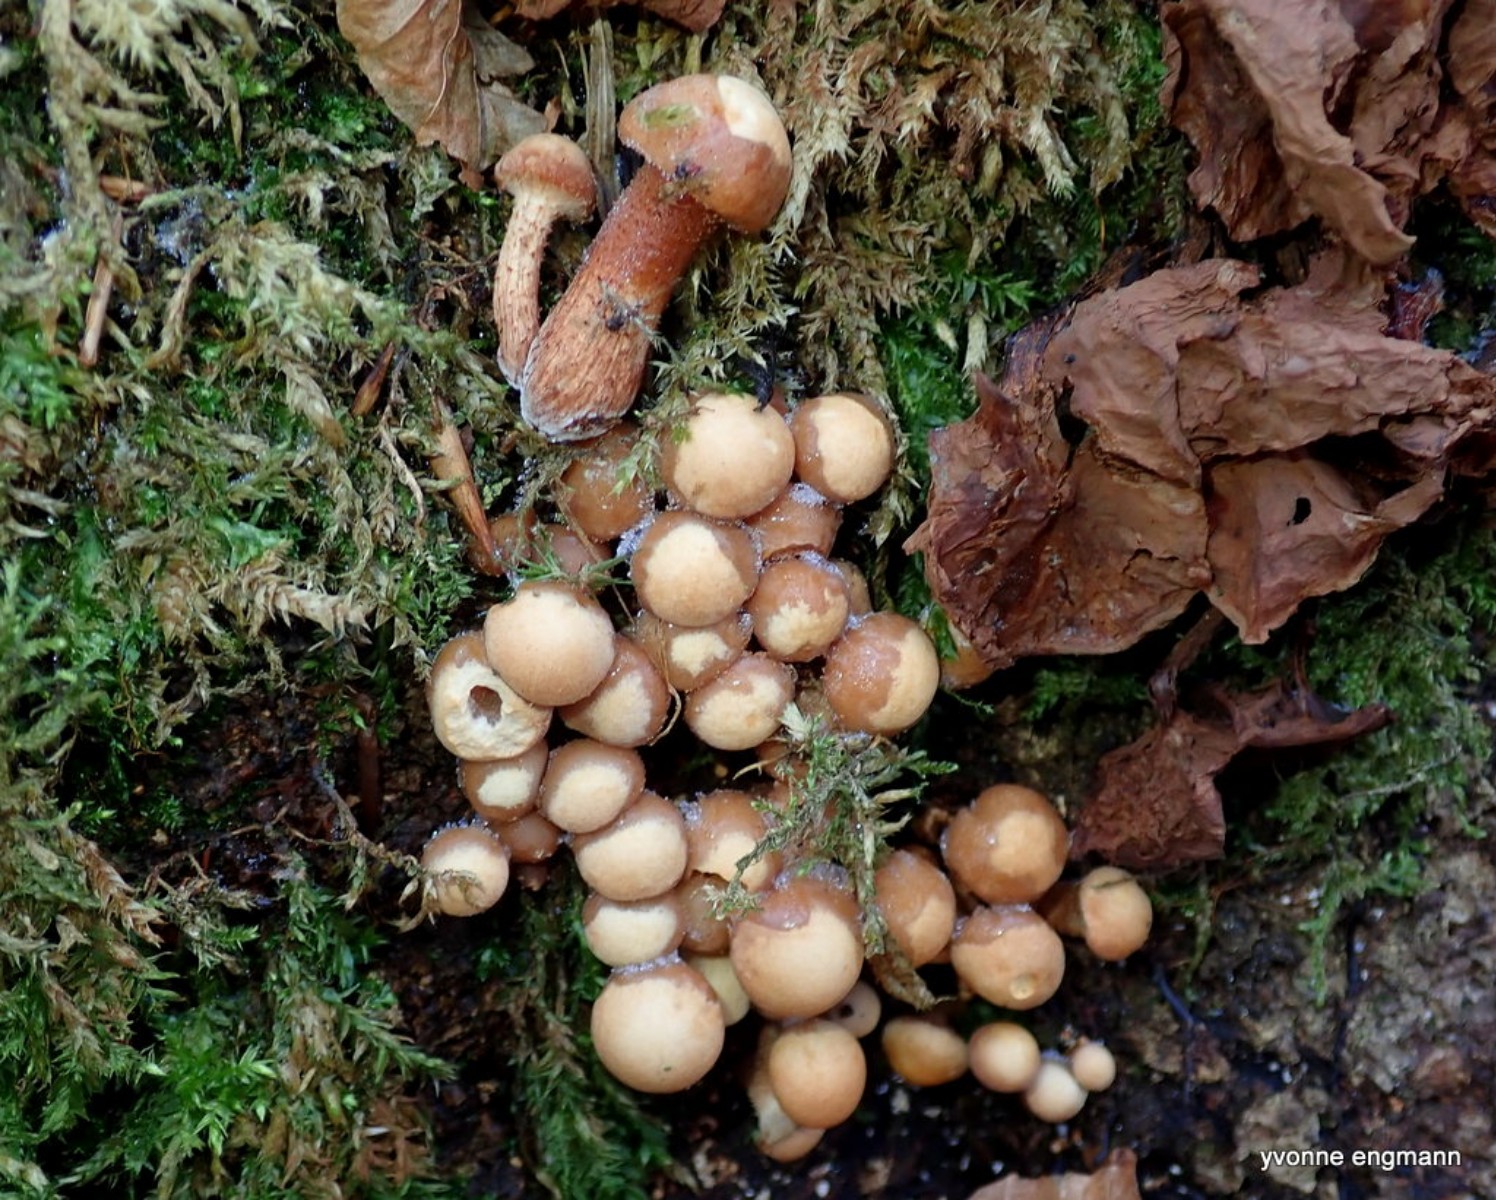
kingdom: Fungi
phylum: Basidiomycota
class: Agaricomycetes
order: Agaricales
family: Strophariaceae
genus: Kuehneromyces
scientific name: Kuehneromyces mutabilis
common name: foranderlig skælhat
